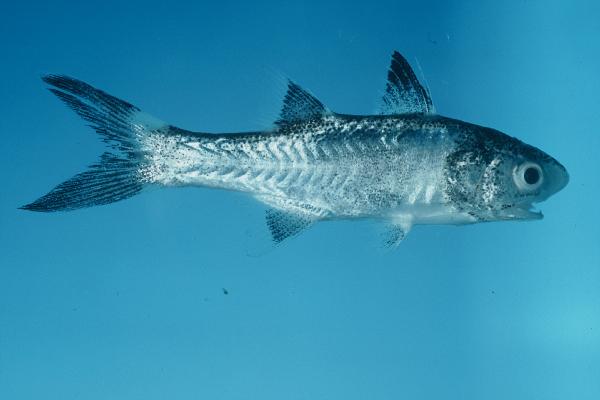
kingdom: Animalia
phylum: Chordata
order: Perciformes
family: Polynemidae
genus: Polydactylus
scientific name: Polydactylus sexfilis
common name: Six-fingered threadfin
